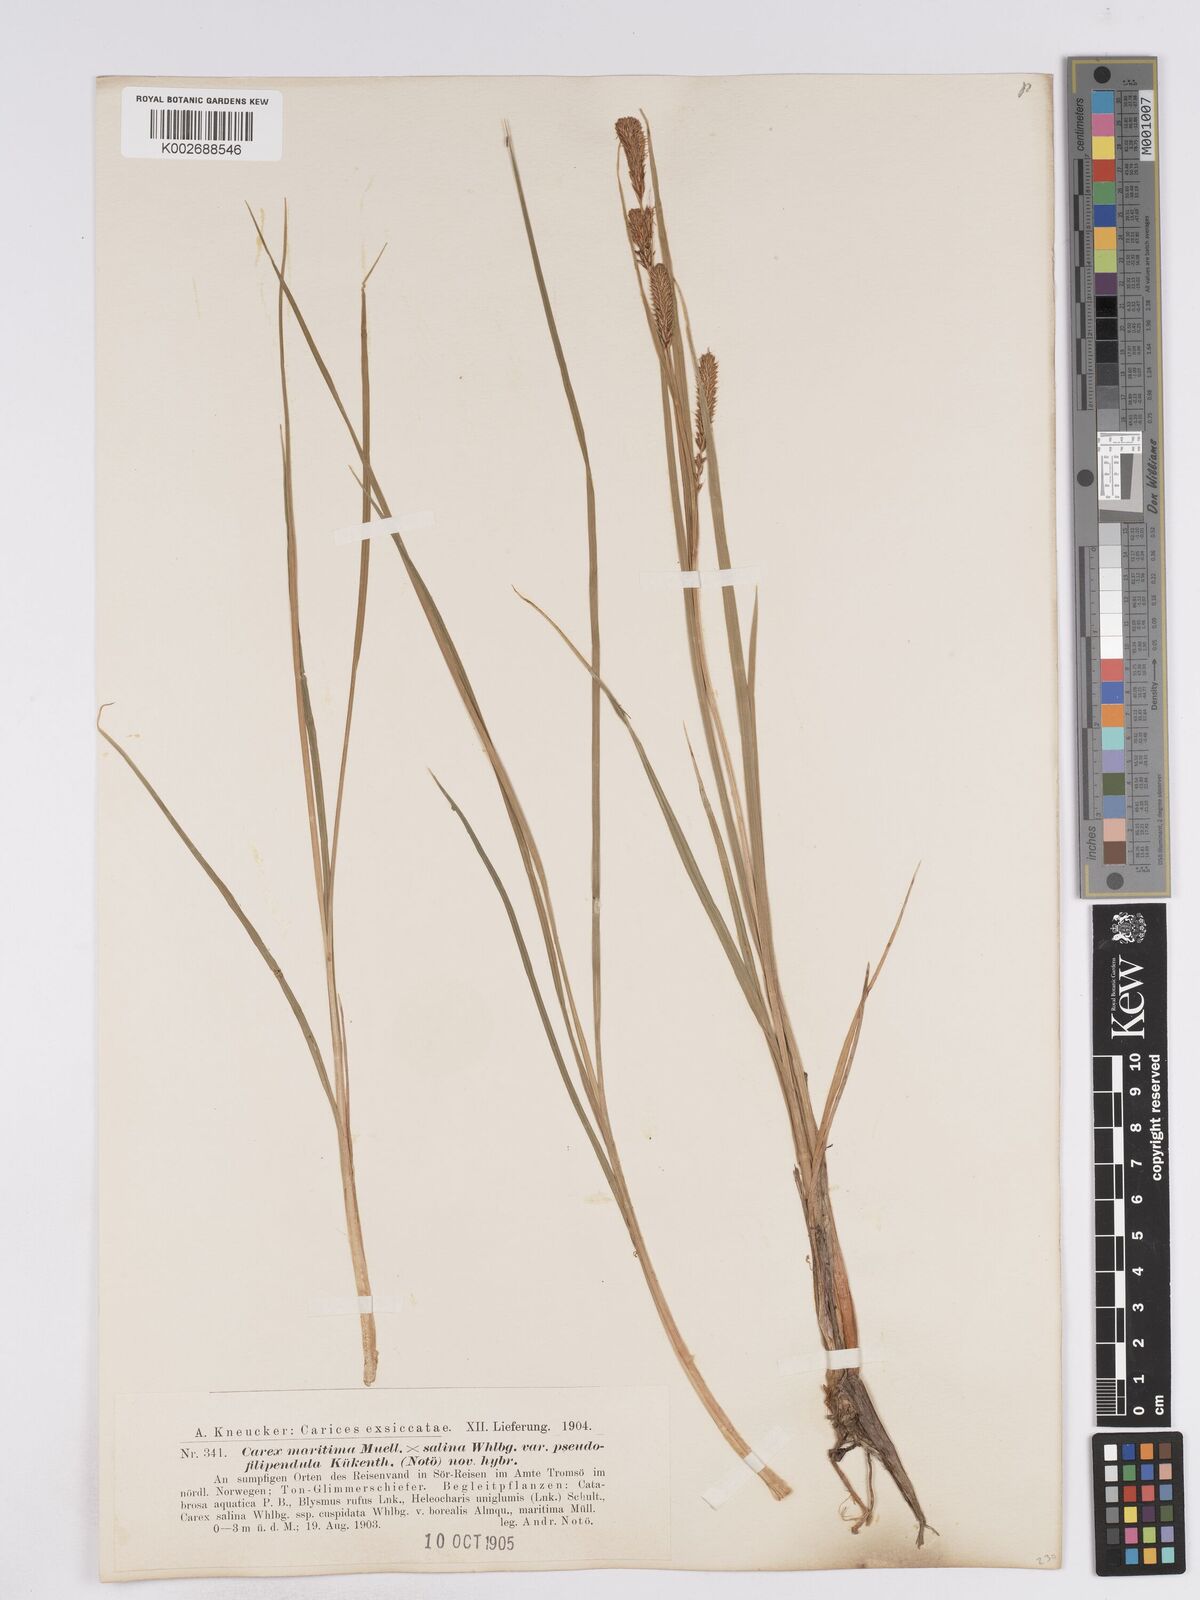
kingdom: Plantae
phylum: Tracheophyta
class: Liliopsida
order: Poales
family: Cyperaceae
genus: Carex
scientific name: Carex recta
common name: Estuarine sedge
